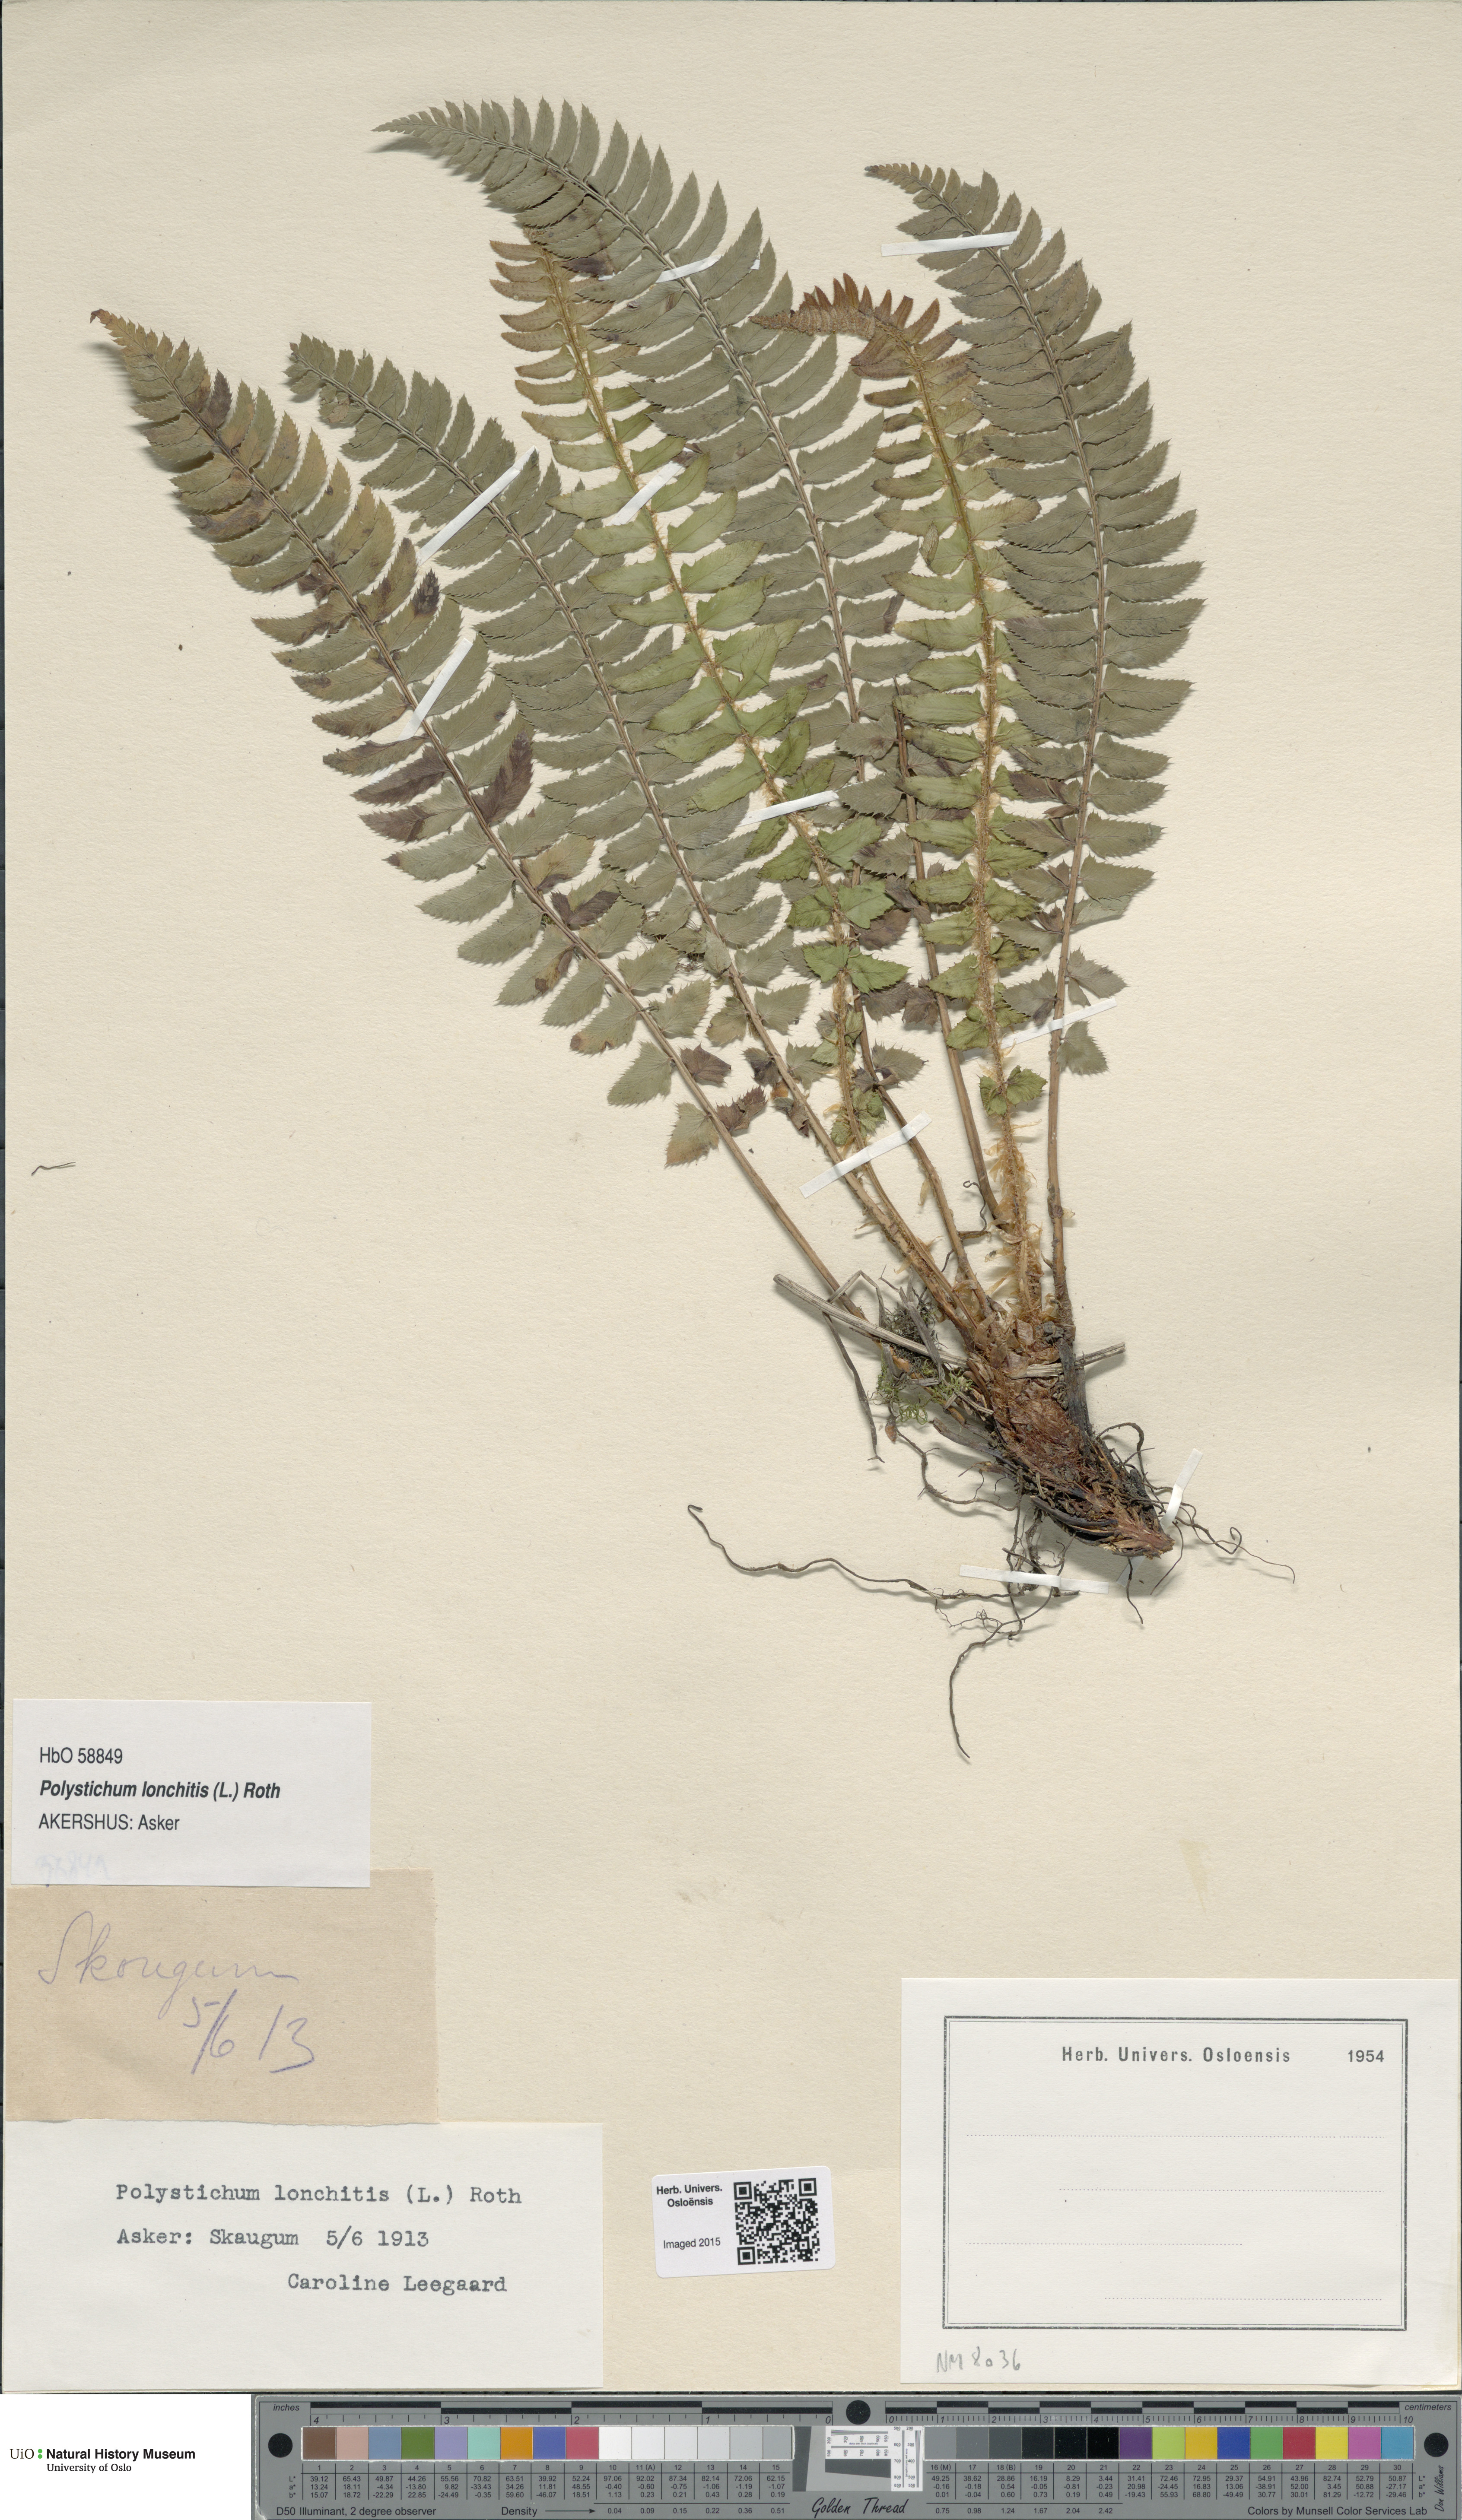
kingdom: Plantae
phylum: Tracheophyta
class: Polypodiopsida
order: Polypodiales
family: Dryopteridaceae
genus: Polystichum
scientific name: Polystichum lonchitis
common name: Holly fern
